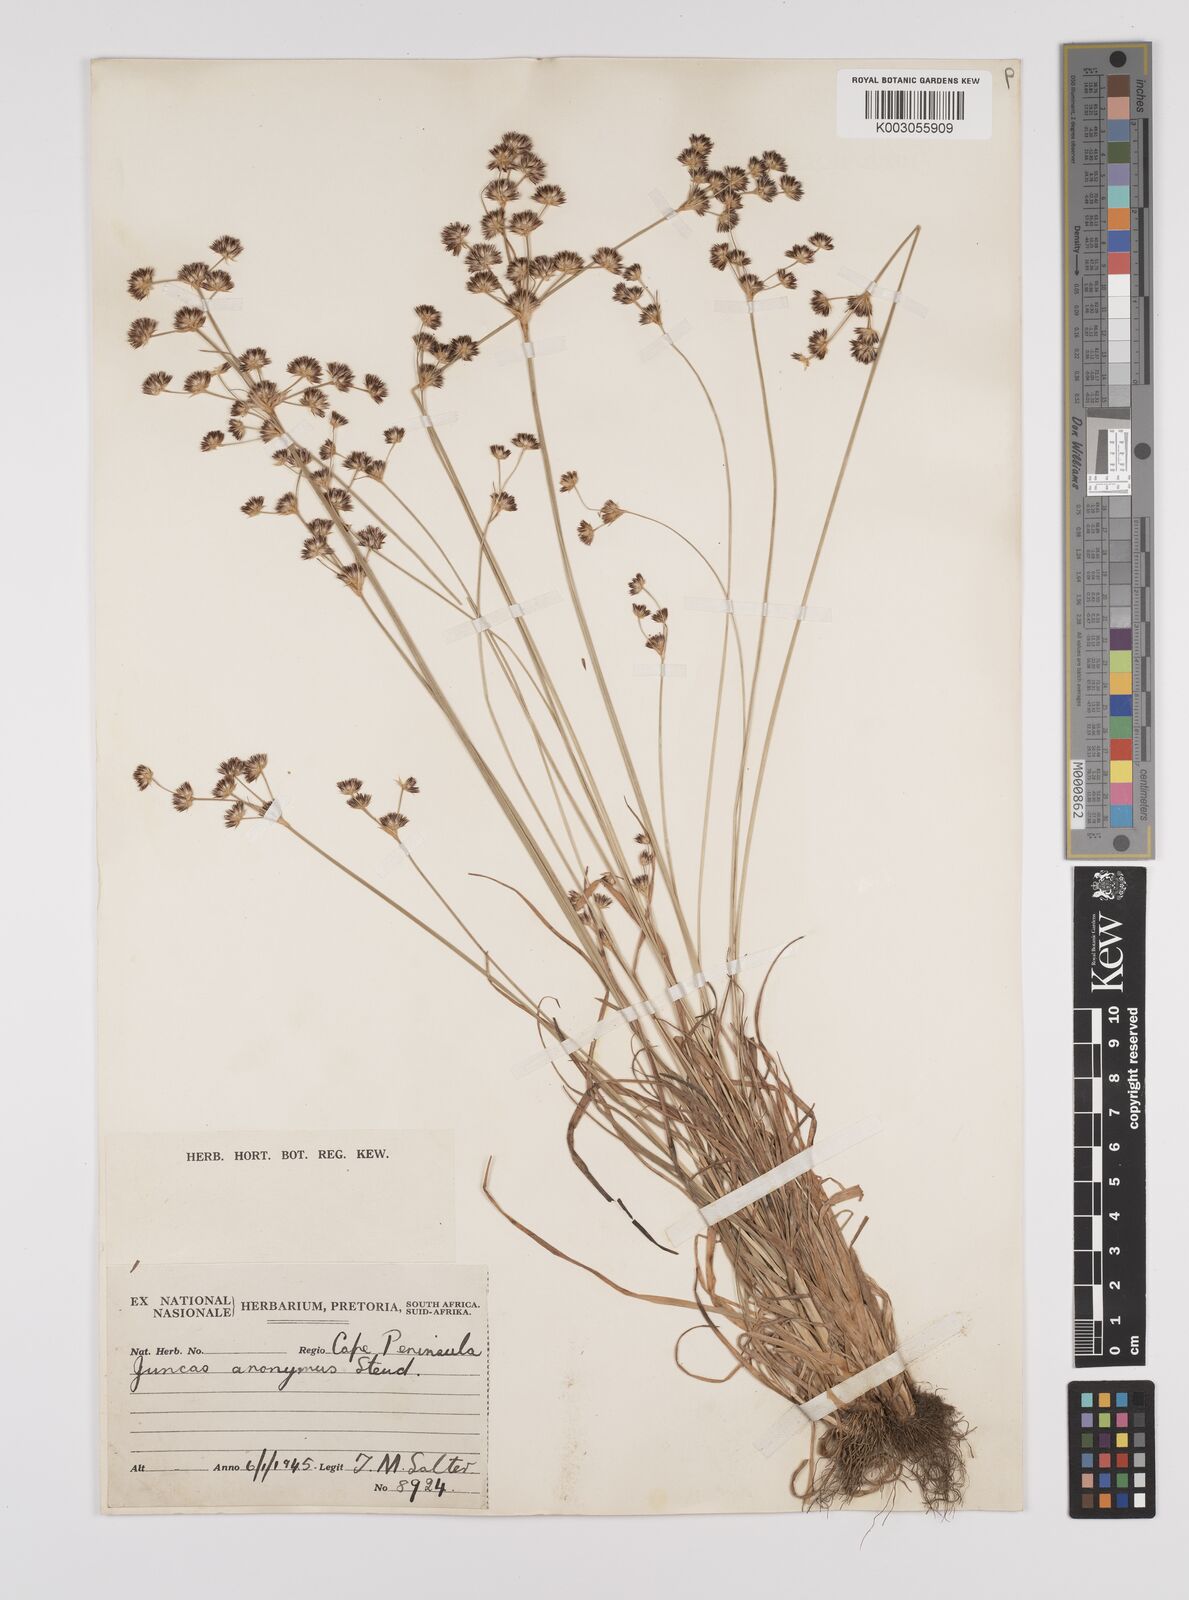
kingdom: Plantae
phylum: Tracheophyta
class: Liliopsida
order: Poales
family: Juncaceae
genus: Juncus
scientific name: Juncus capensis
